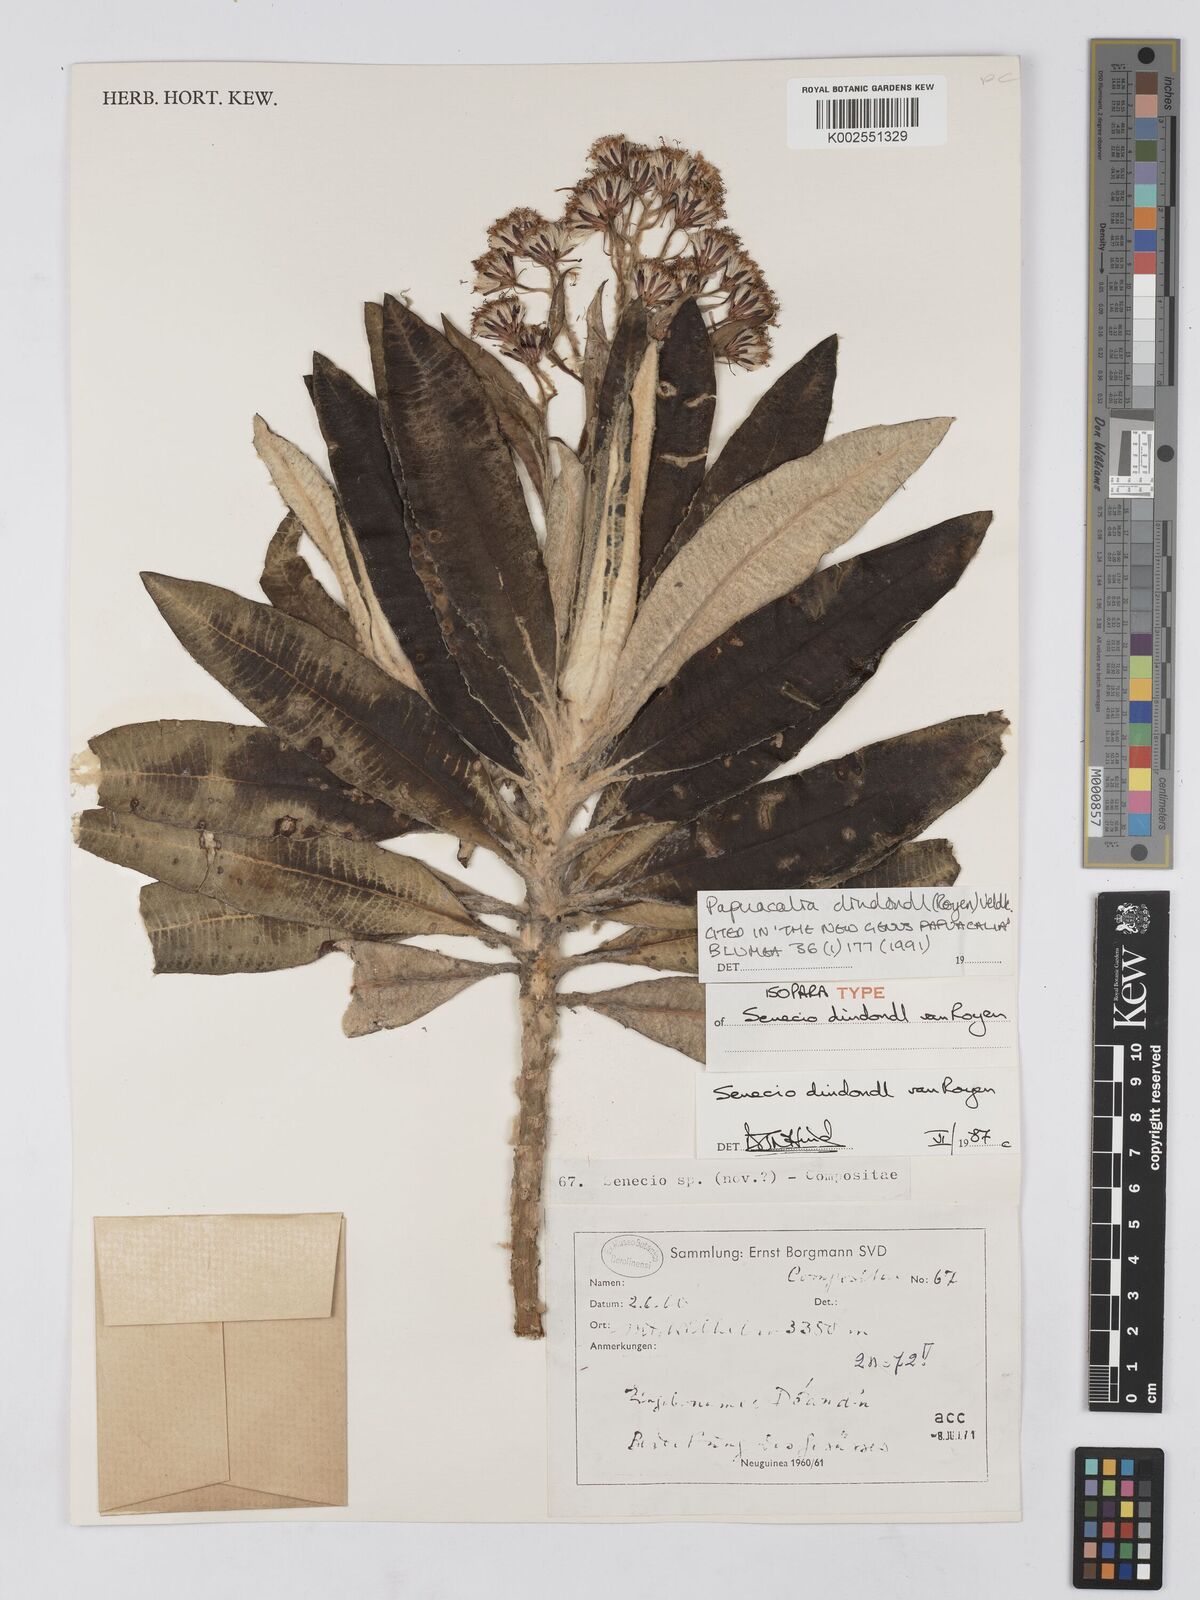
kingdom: Plantae
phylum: Tracheophyta
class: Magnoliopsida
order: Asterales
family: Asteraceae
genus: Papuacalia
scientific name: Papuacalia dindondl
